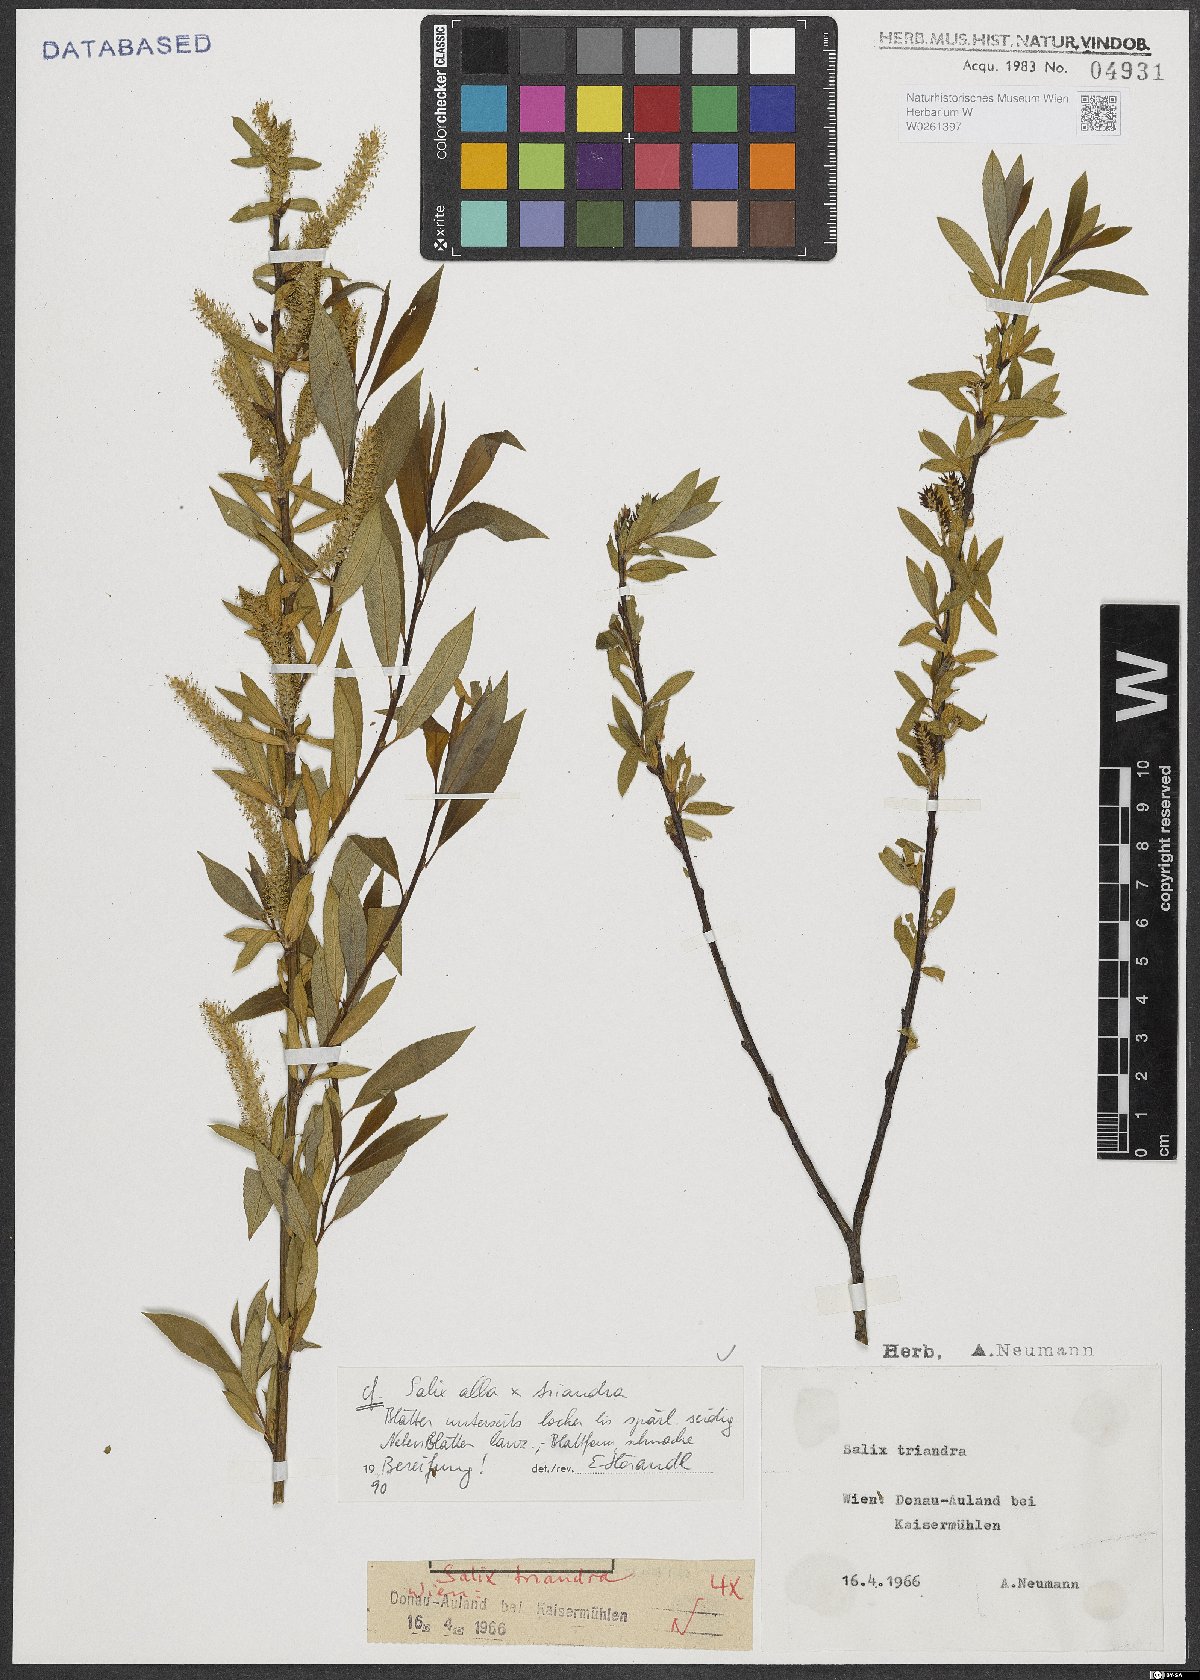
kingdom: Plantae
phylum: Tracheophyta
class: Magnoliopsida
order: Malpighiales
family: Salicaceae
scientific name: Salicaceae
